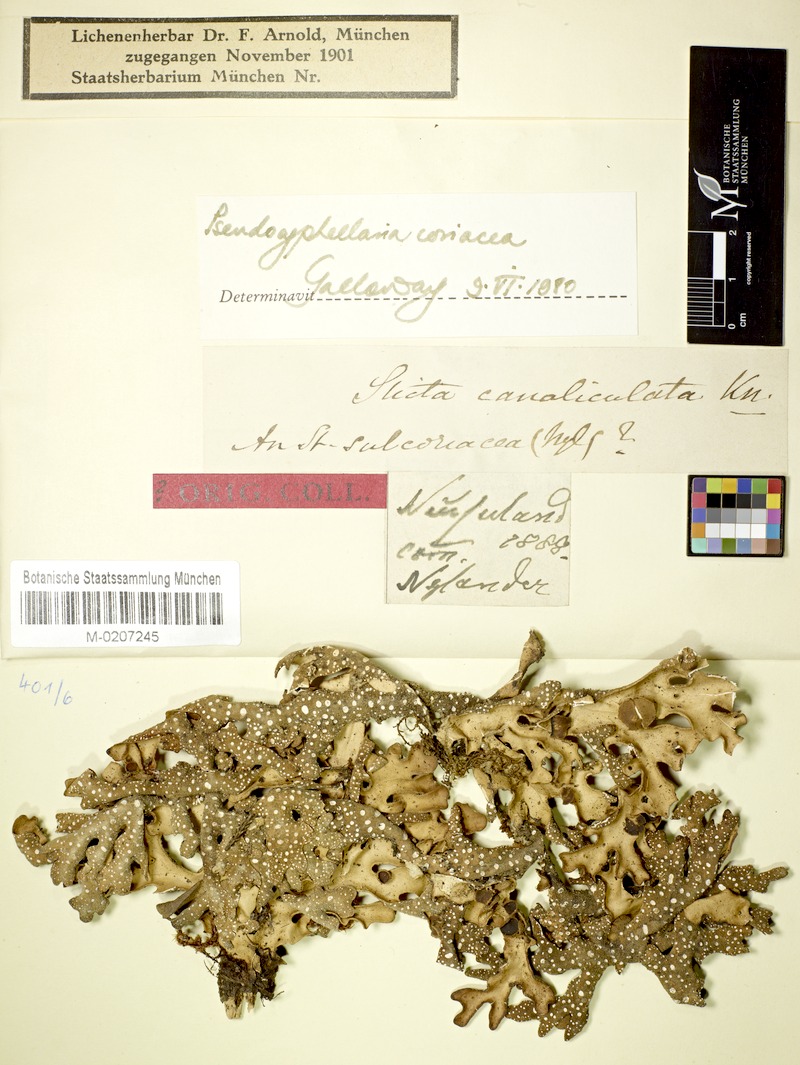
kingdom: Fungi
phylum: Ascomycota
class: Lecanoromycetes
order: Peltigerales
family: Lobariaceae
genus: Pseudocyphellaria
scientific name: Pseudocyphellaria coriacea
